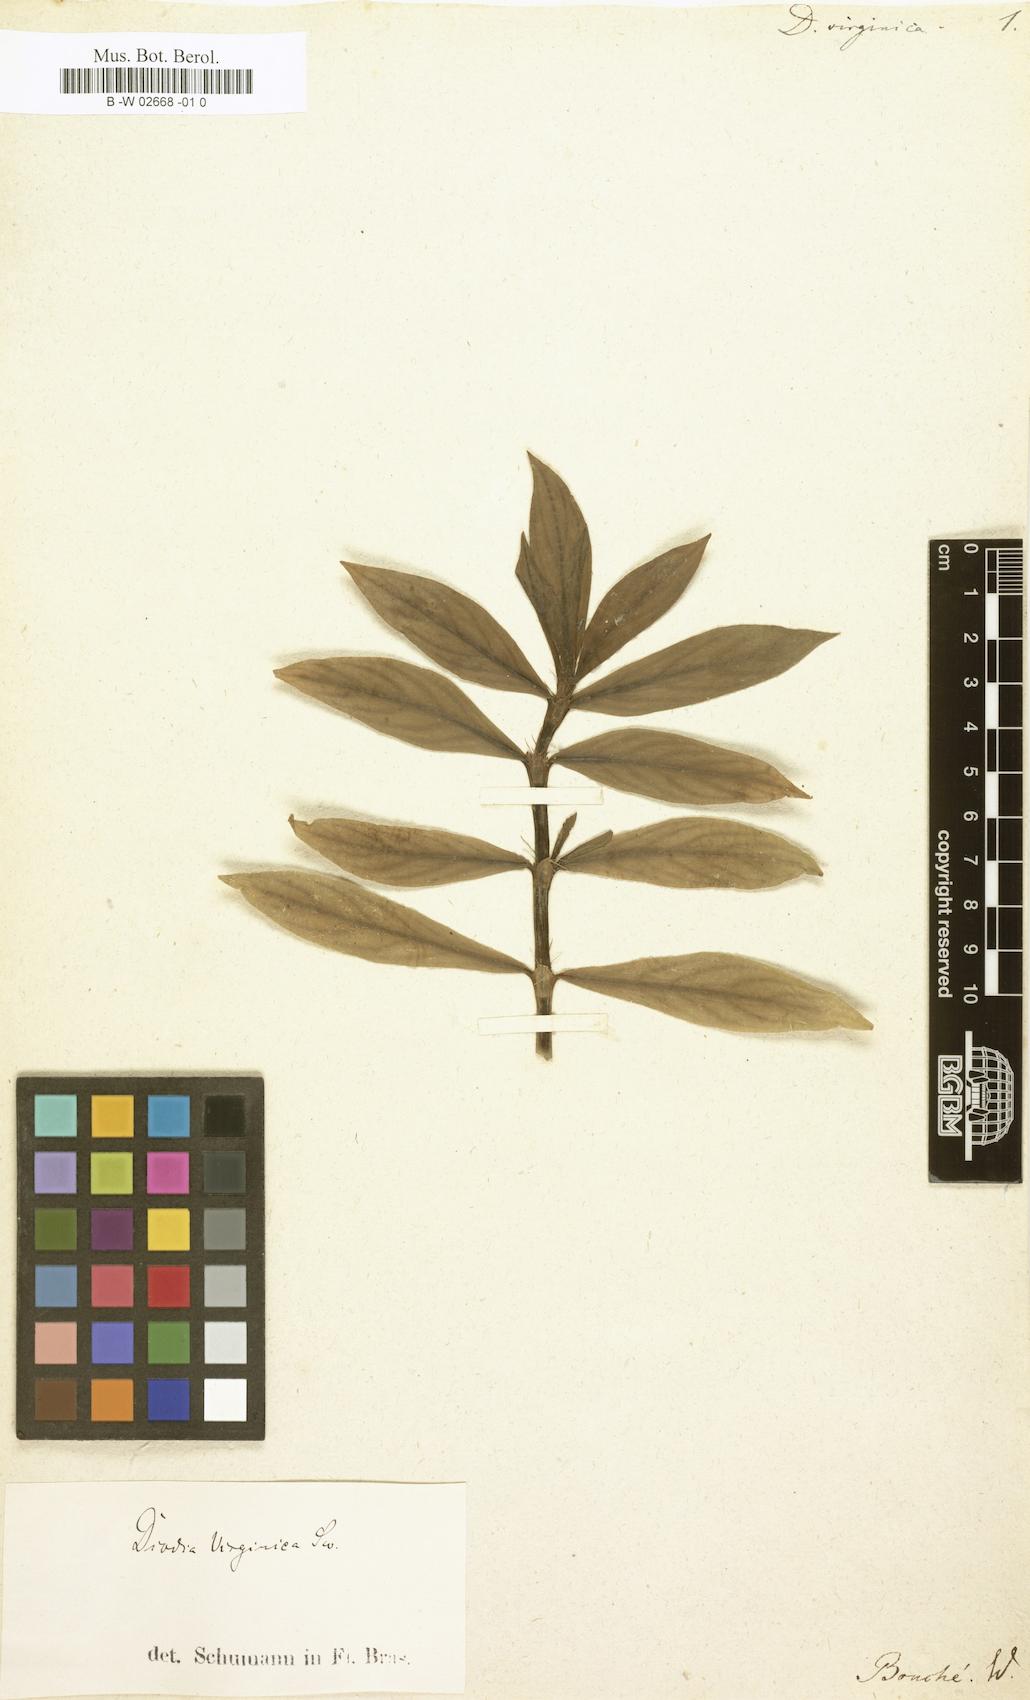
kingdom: Plantae
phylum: Tracheophyta
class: Magnoliopsida
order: Gentianales
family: Rubiaceae
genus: Diodia
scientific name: Diodia virginica
